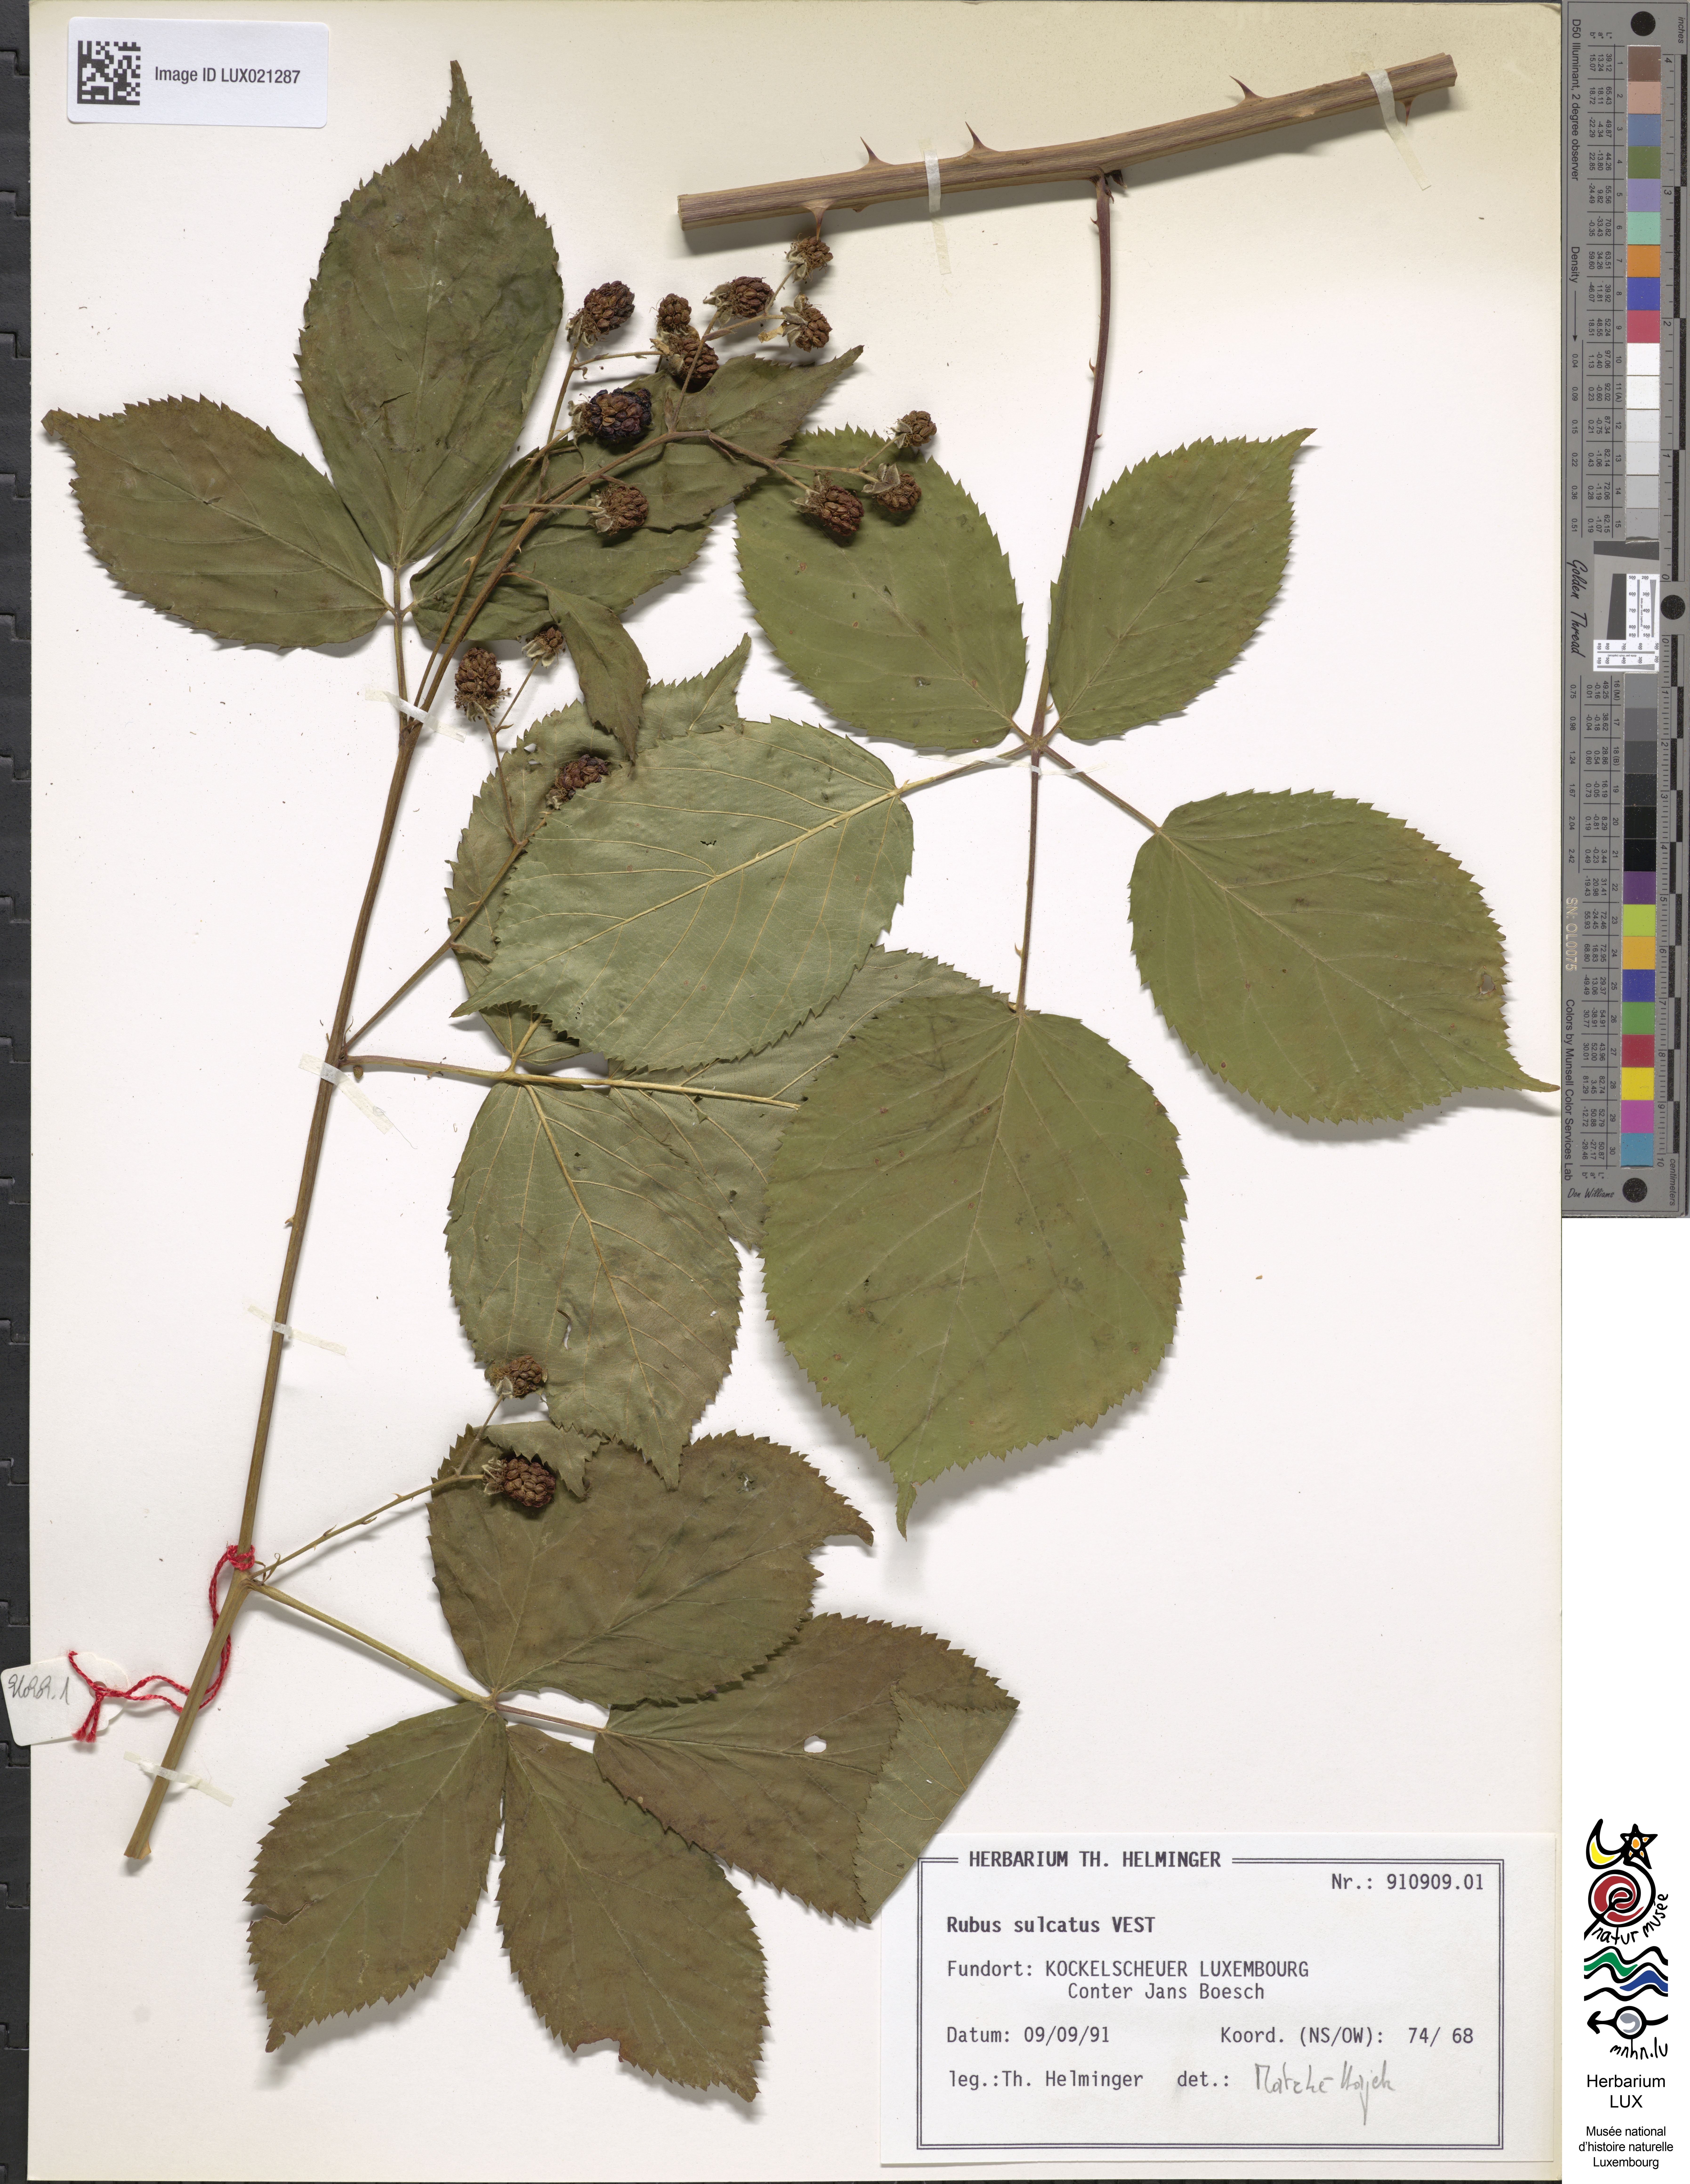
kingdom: Plantae
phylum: Tracheophyta
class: Magnoliopsida
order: Rosales
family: Rosaceae
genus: Rubus
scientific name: Rubus sulcatus
